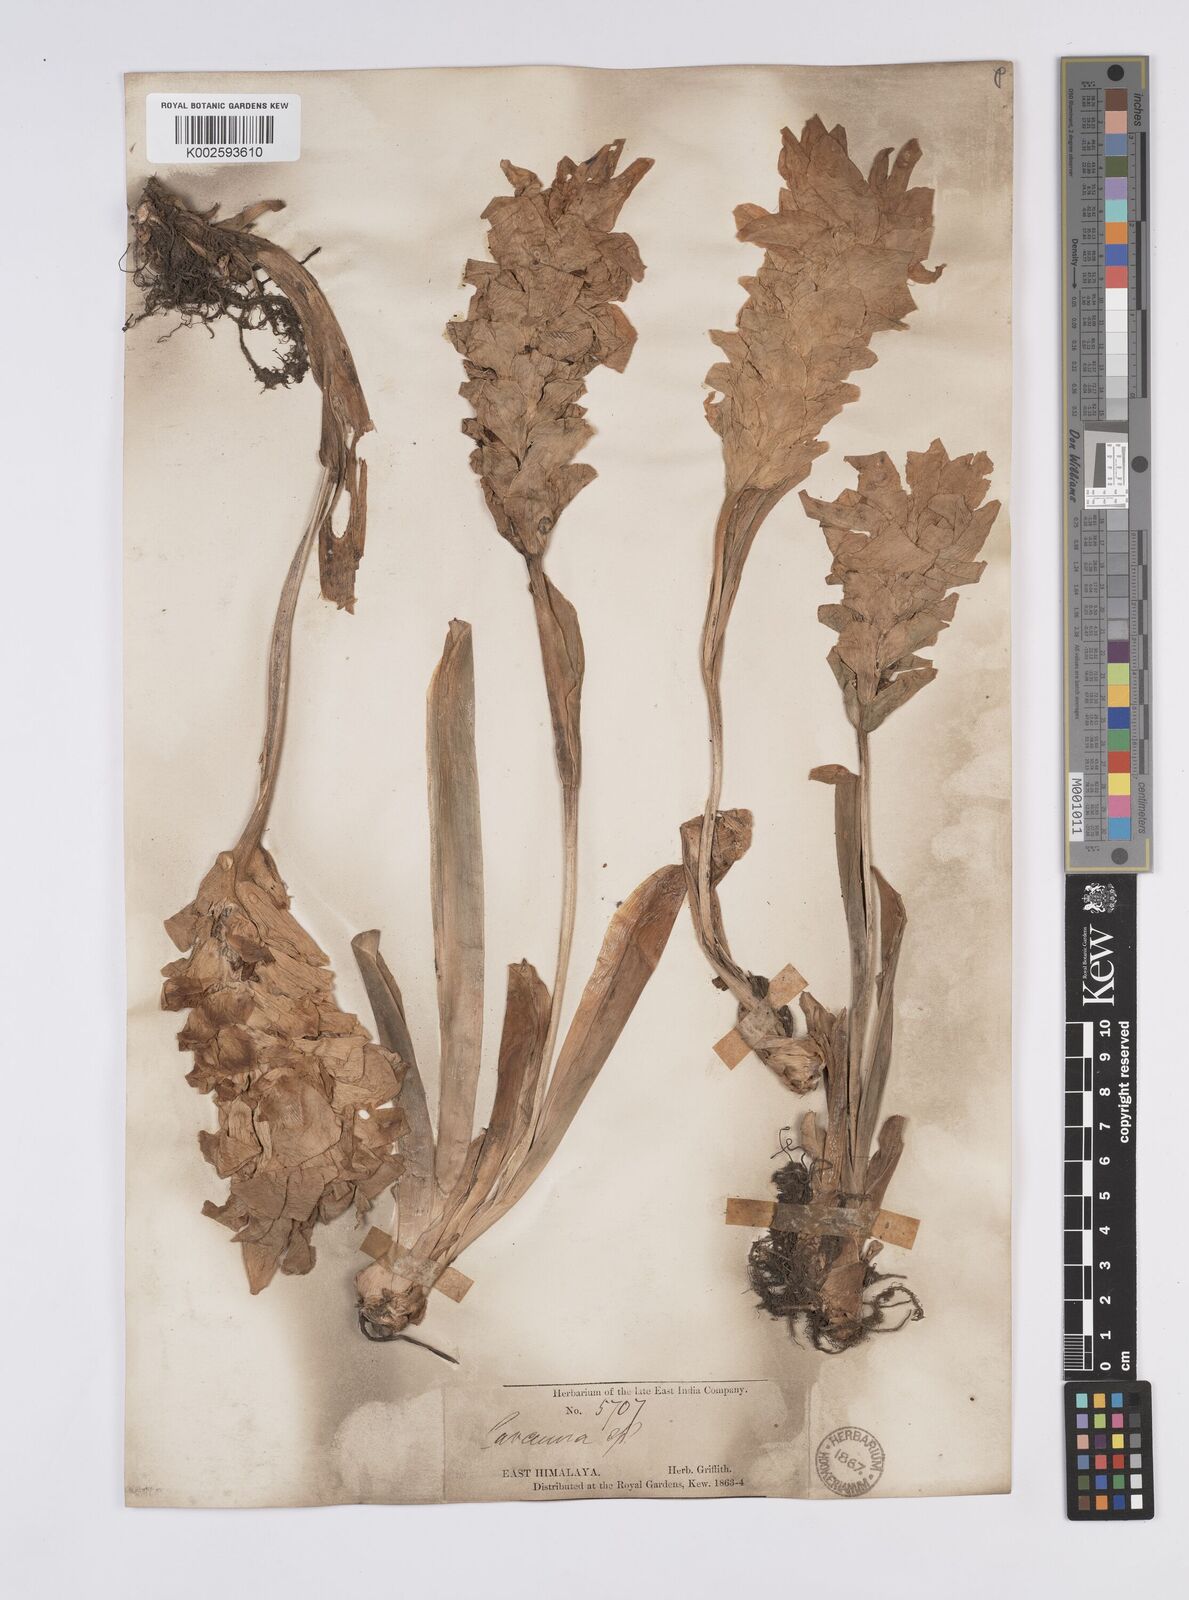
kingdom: Plantae
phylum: Tracheophyta
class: Liliopsida
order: Zingiberales
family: Zingiberaceae
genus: Curcuma
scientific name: Curcuma aromatica
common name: Wild turmeric
